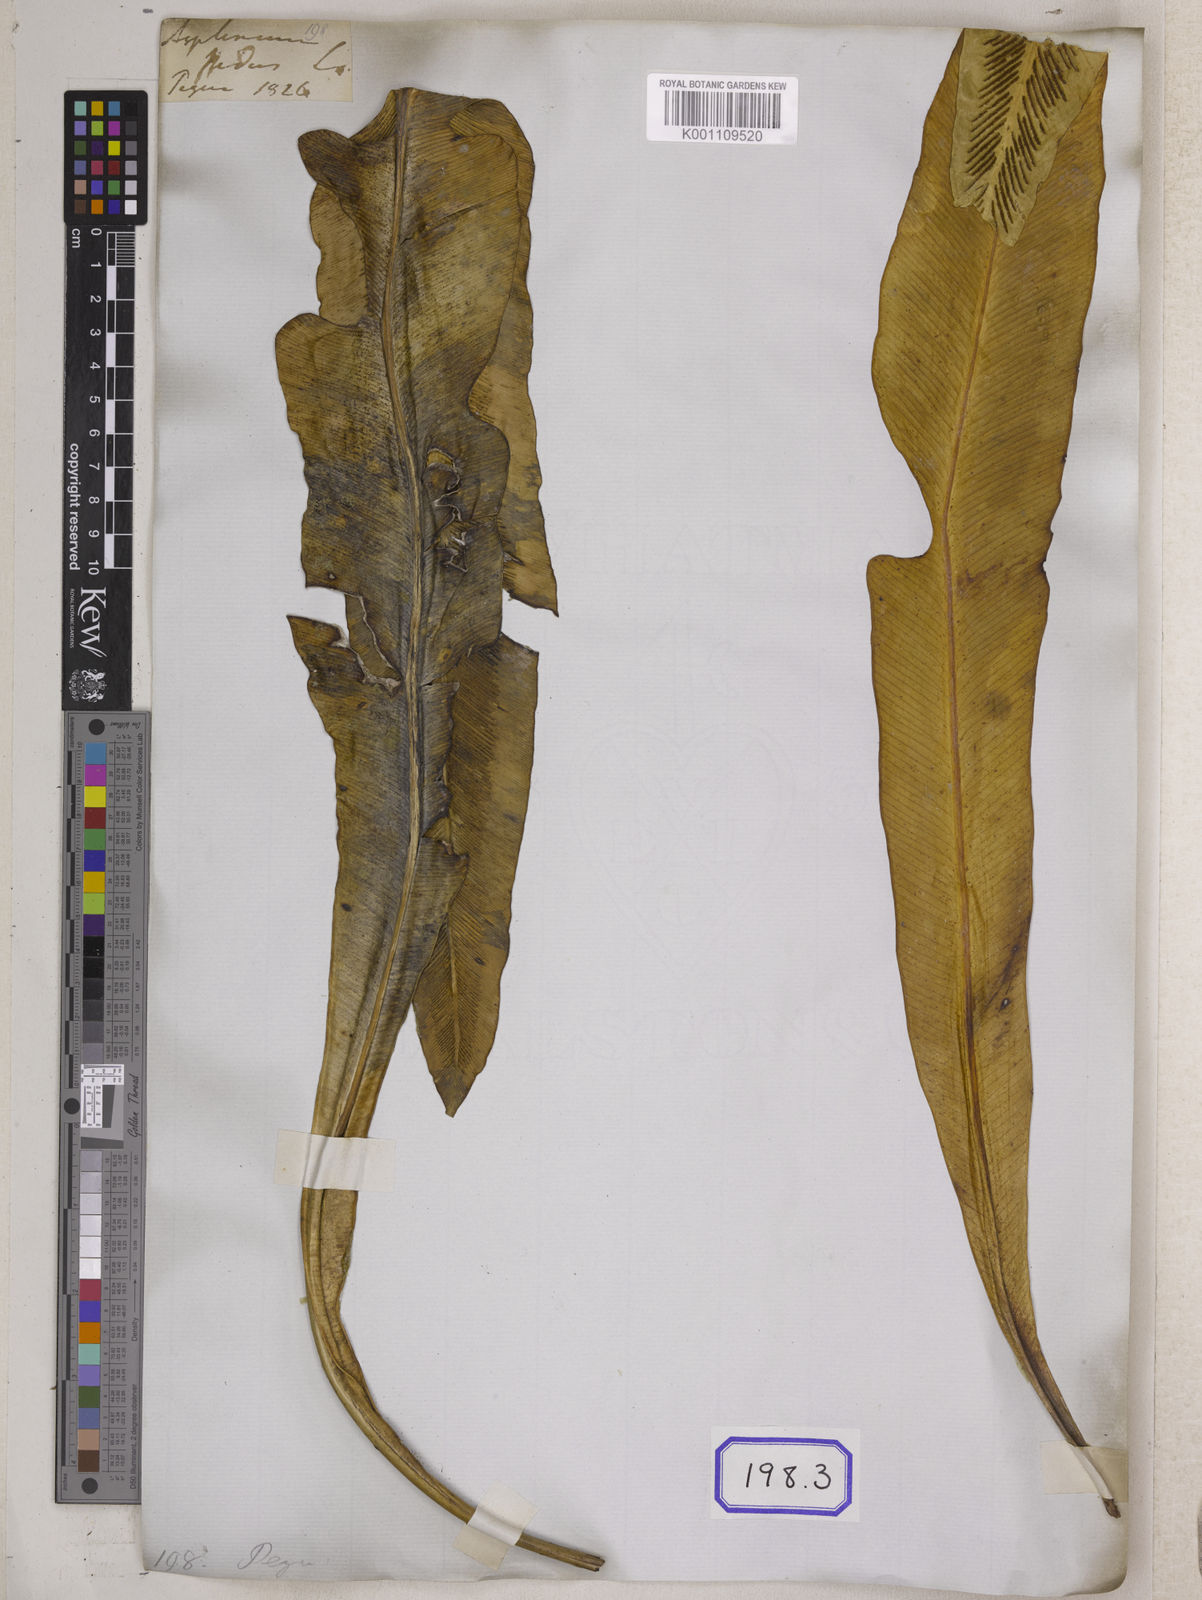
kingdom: Plantae
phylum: Tracheophyta
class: Polypodiopsida
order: Polypodiales
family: Aspleniaceae
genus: Asplenium
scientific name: Asplenium nidus
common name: Bird's-nest fern
